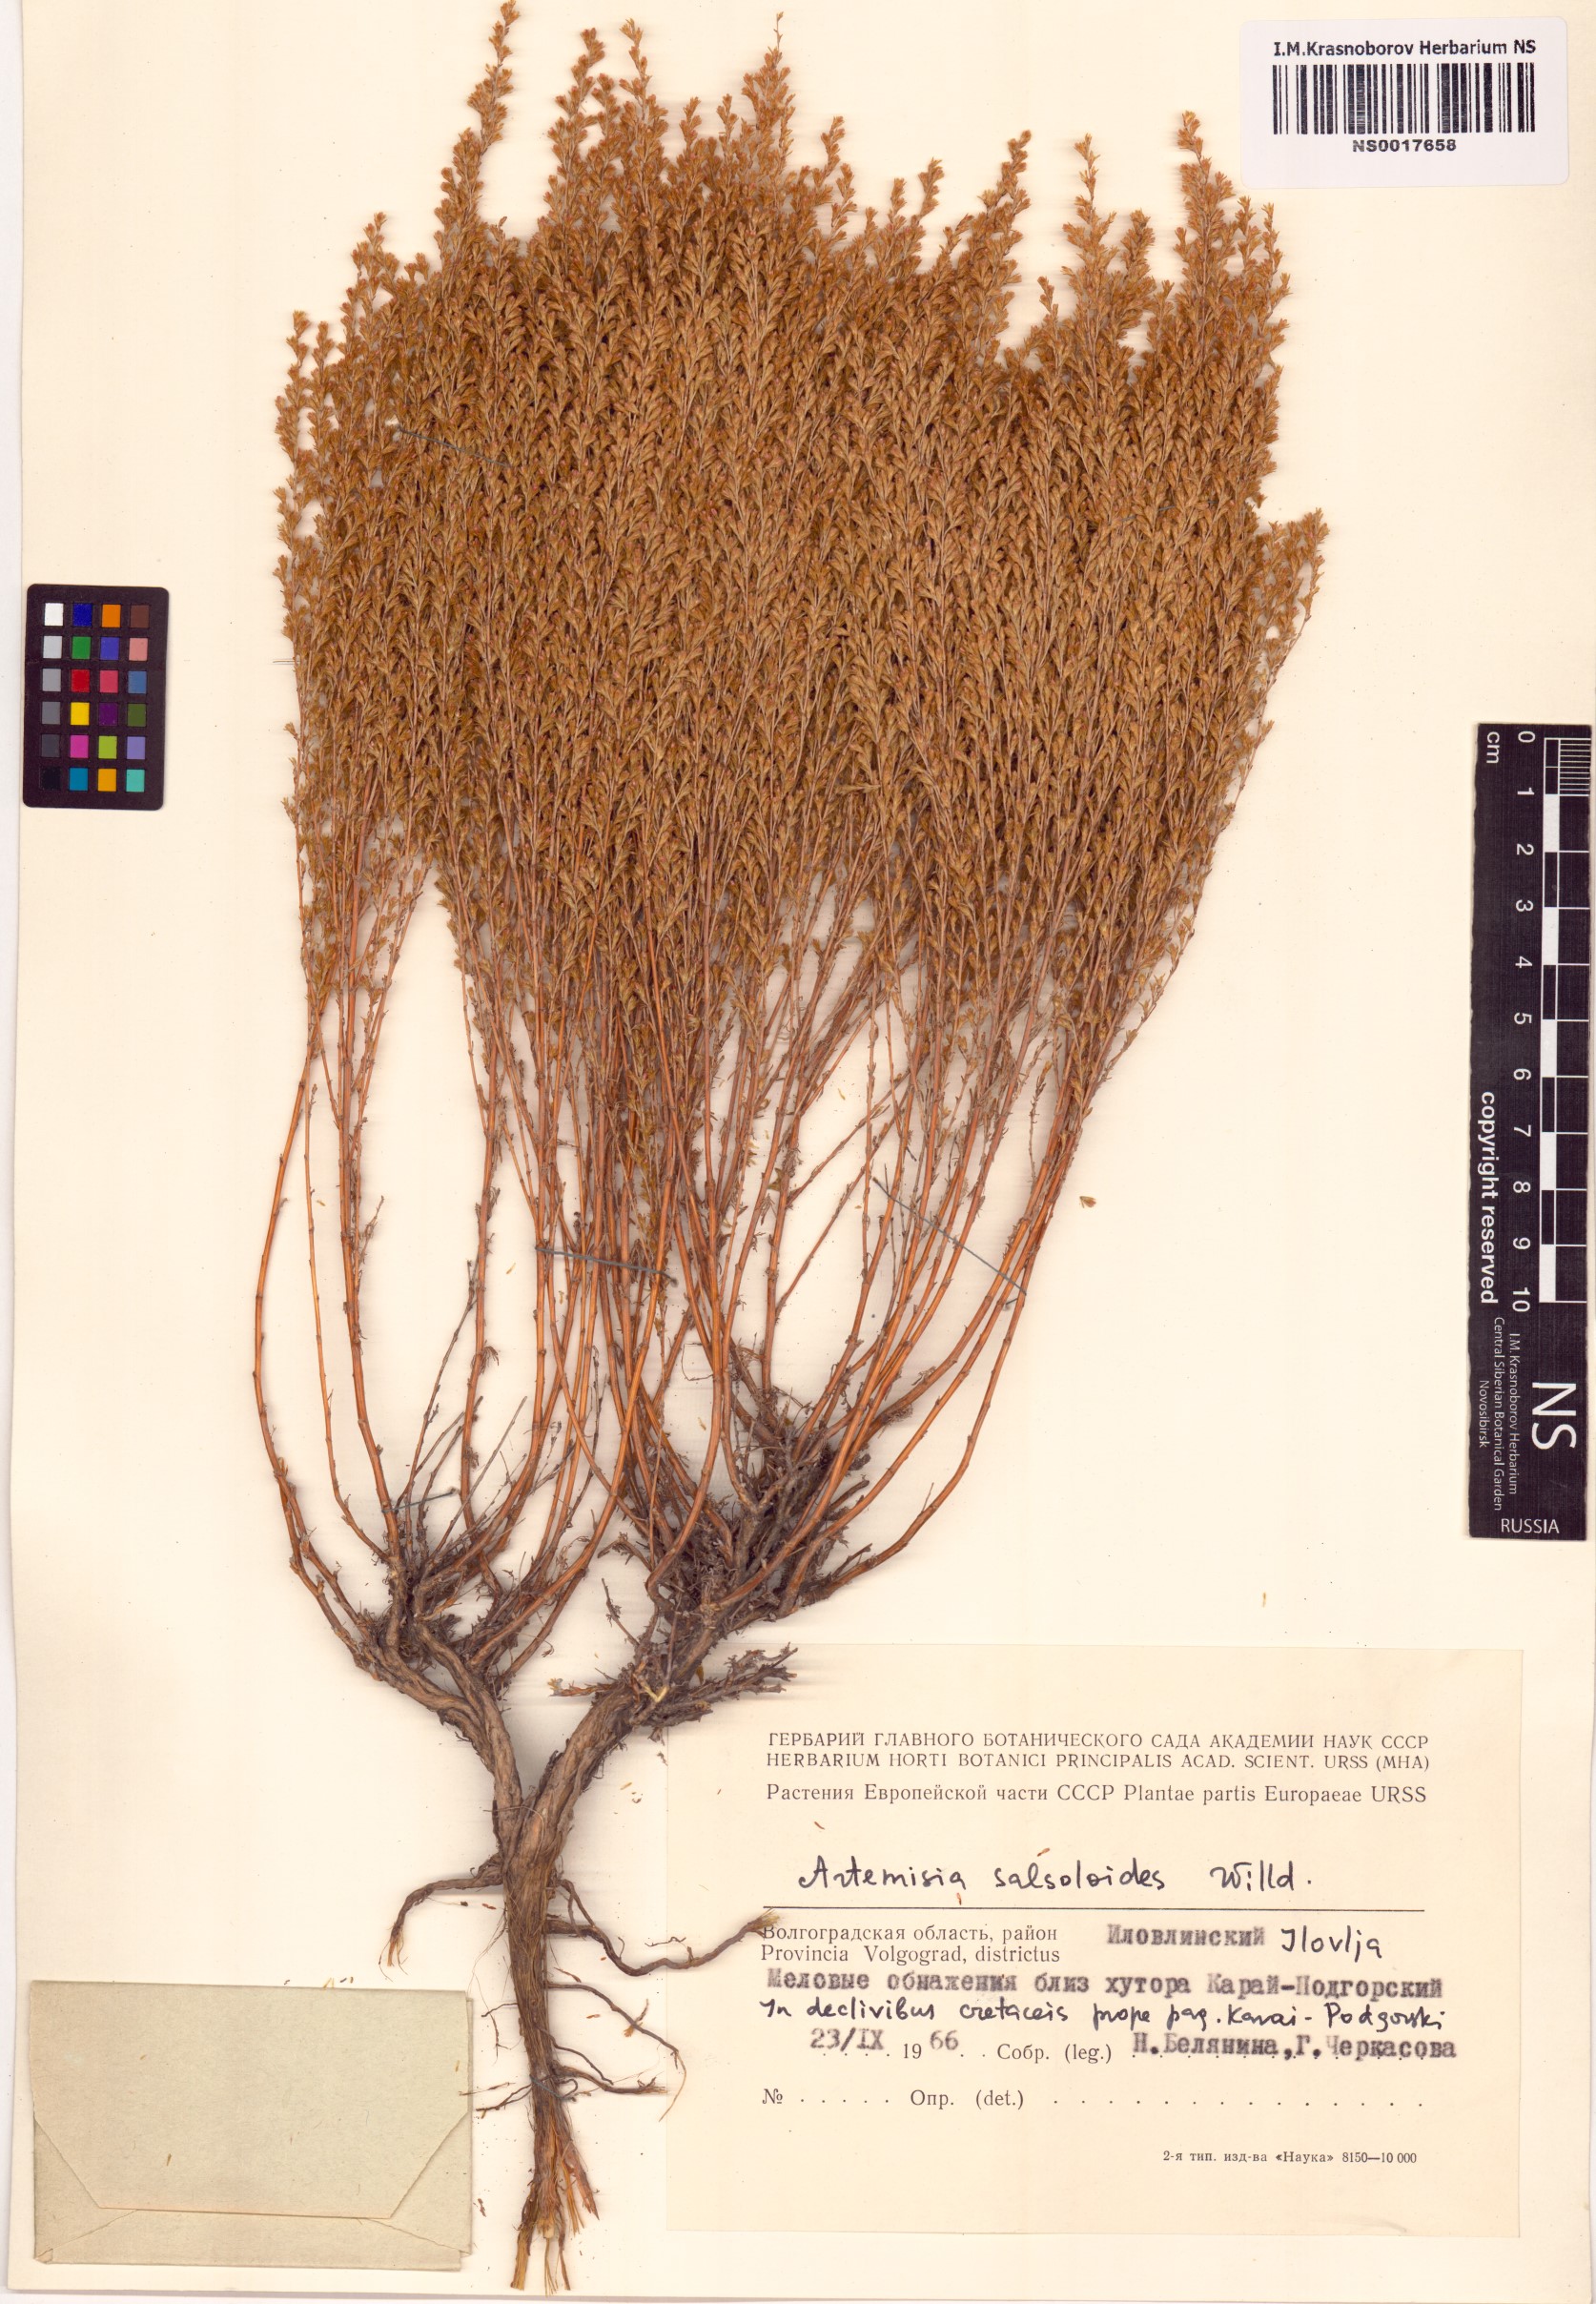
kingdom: Plantae
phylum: Tracheophyta
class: Magnoliopsida
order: Asterales
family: Asteraceae
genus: Artemisia
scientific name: Artemisia salsoloides
